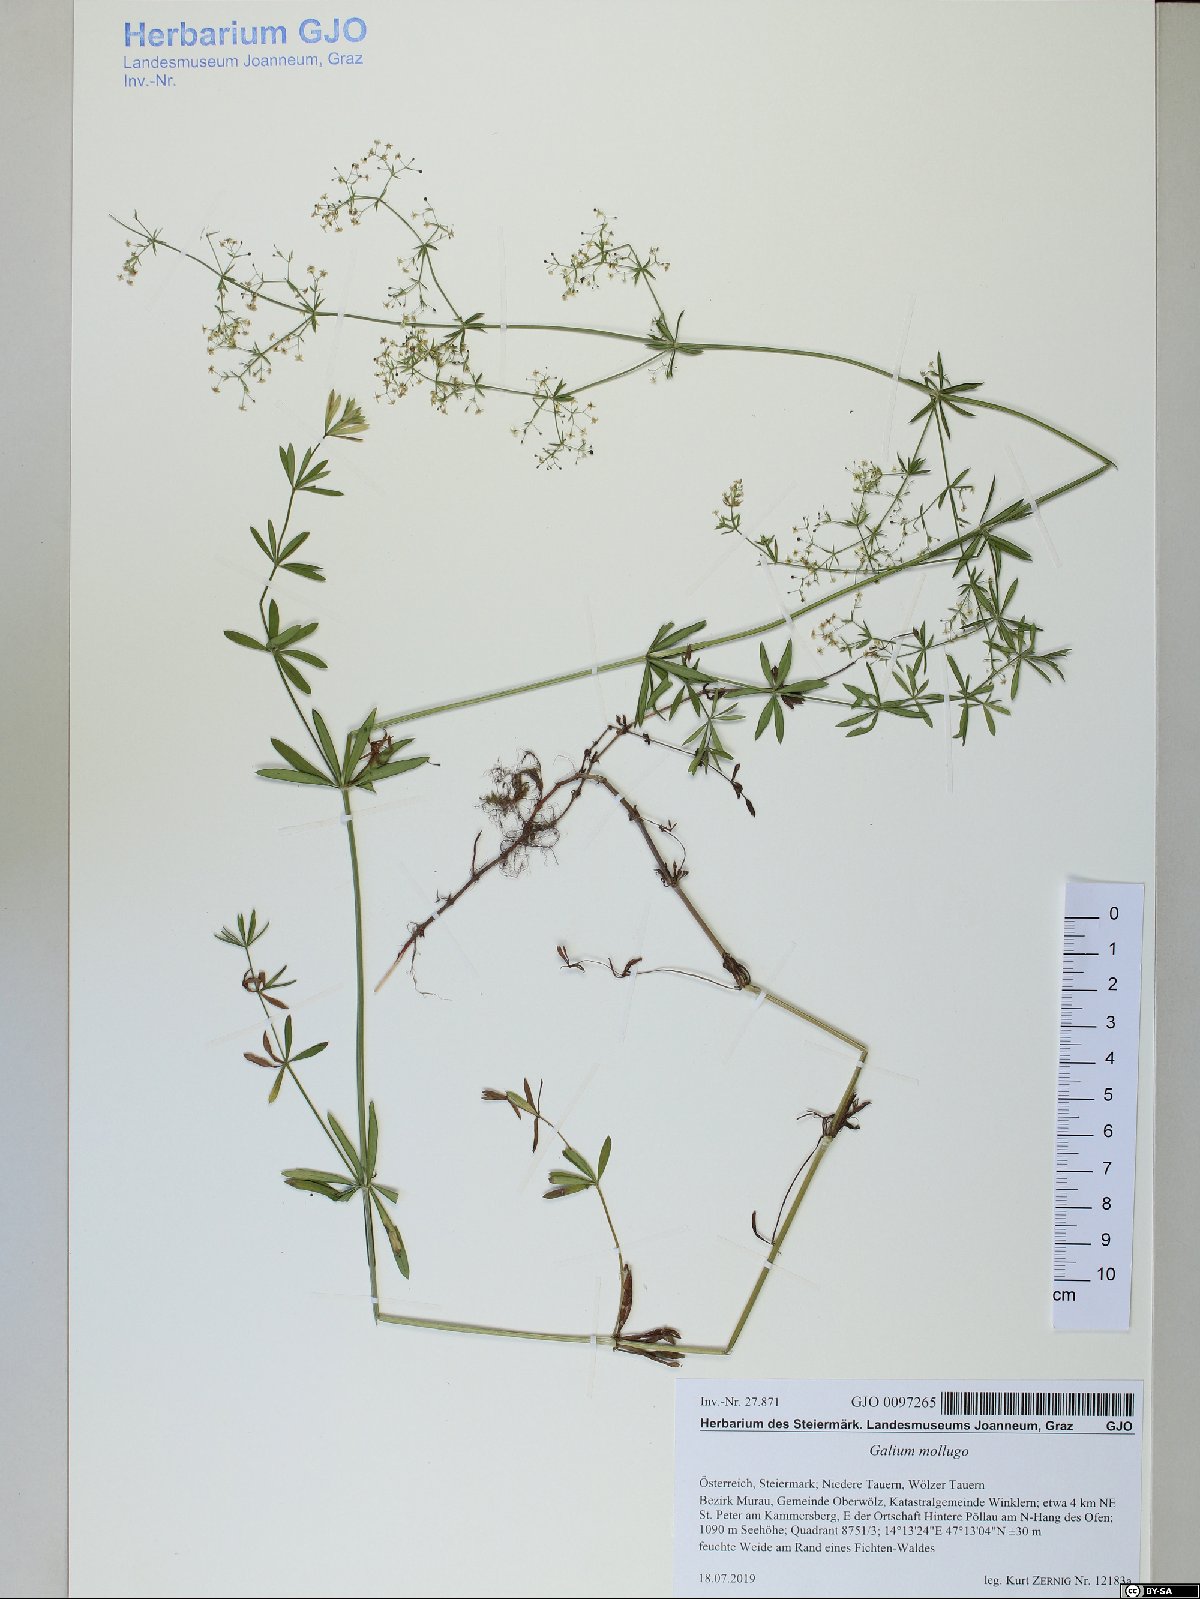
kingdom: Plantae
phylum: Tracheophyta
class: Magnoliopsida
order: Gentianales
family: Rubiaceae
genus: Galium
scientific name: Galium mollugo
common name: Hedge bedstraw
